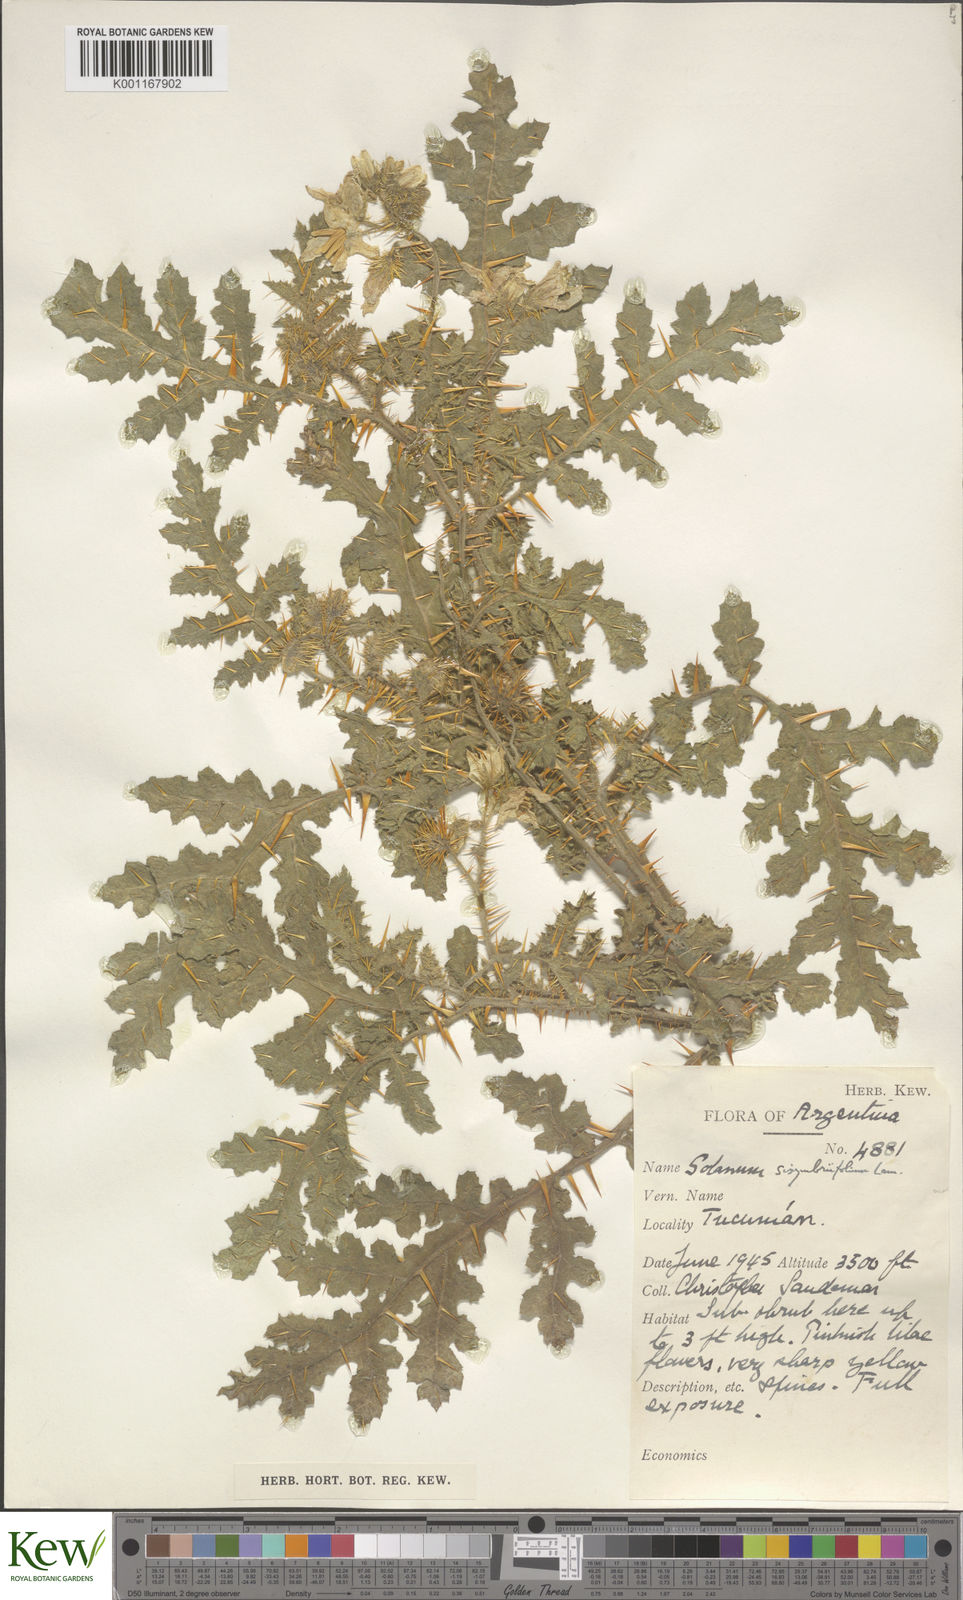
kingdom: Plantae
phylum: Tracheophyta
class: Magnoliopsida
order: Solanales
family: Solanaceae
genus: Solanum
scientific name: Solanum sisymbriifolium
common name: Red buffalo-bur
